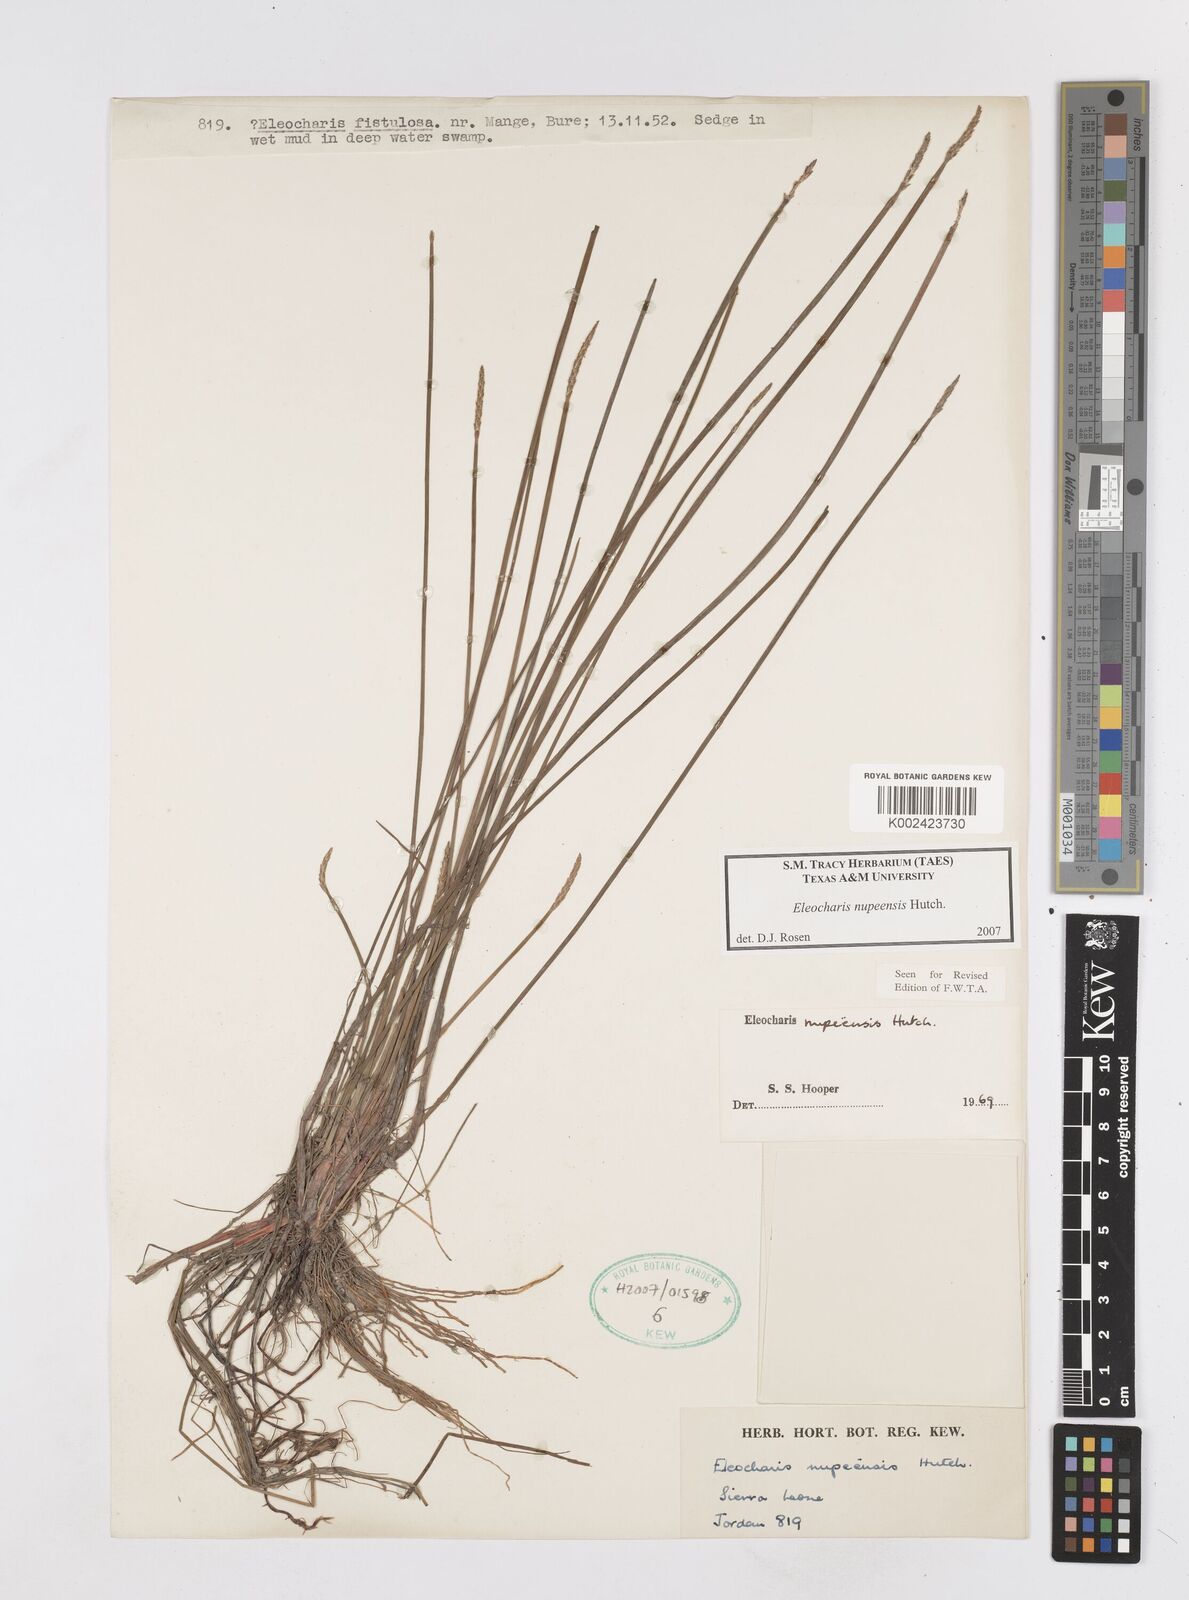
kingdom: Plantae
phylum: Tracheophyta
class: Liliopsida
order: Poales
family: Cyperaceae
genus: Eleocharis
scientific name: Eleocharis nupeensis
